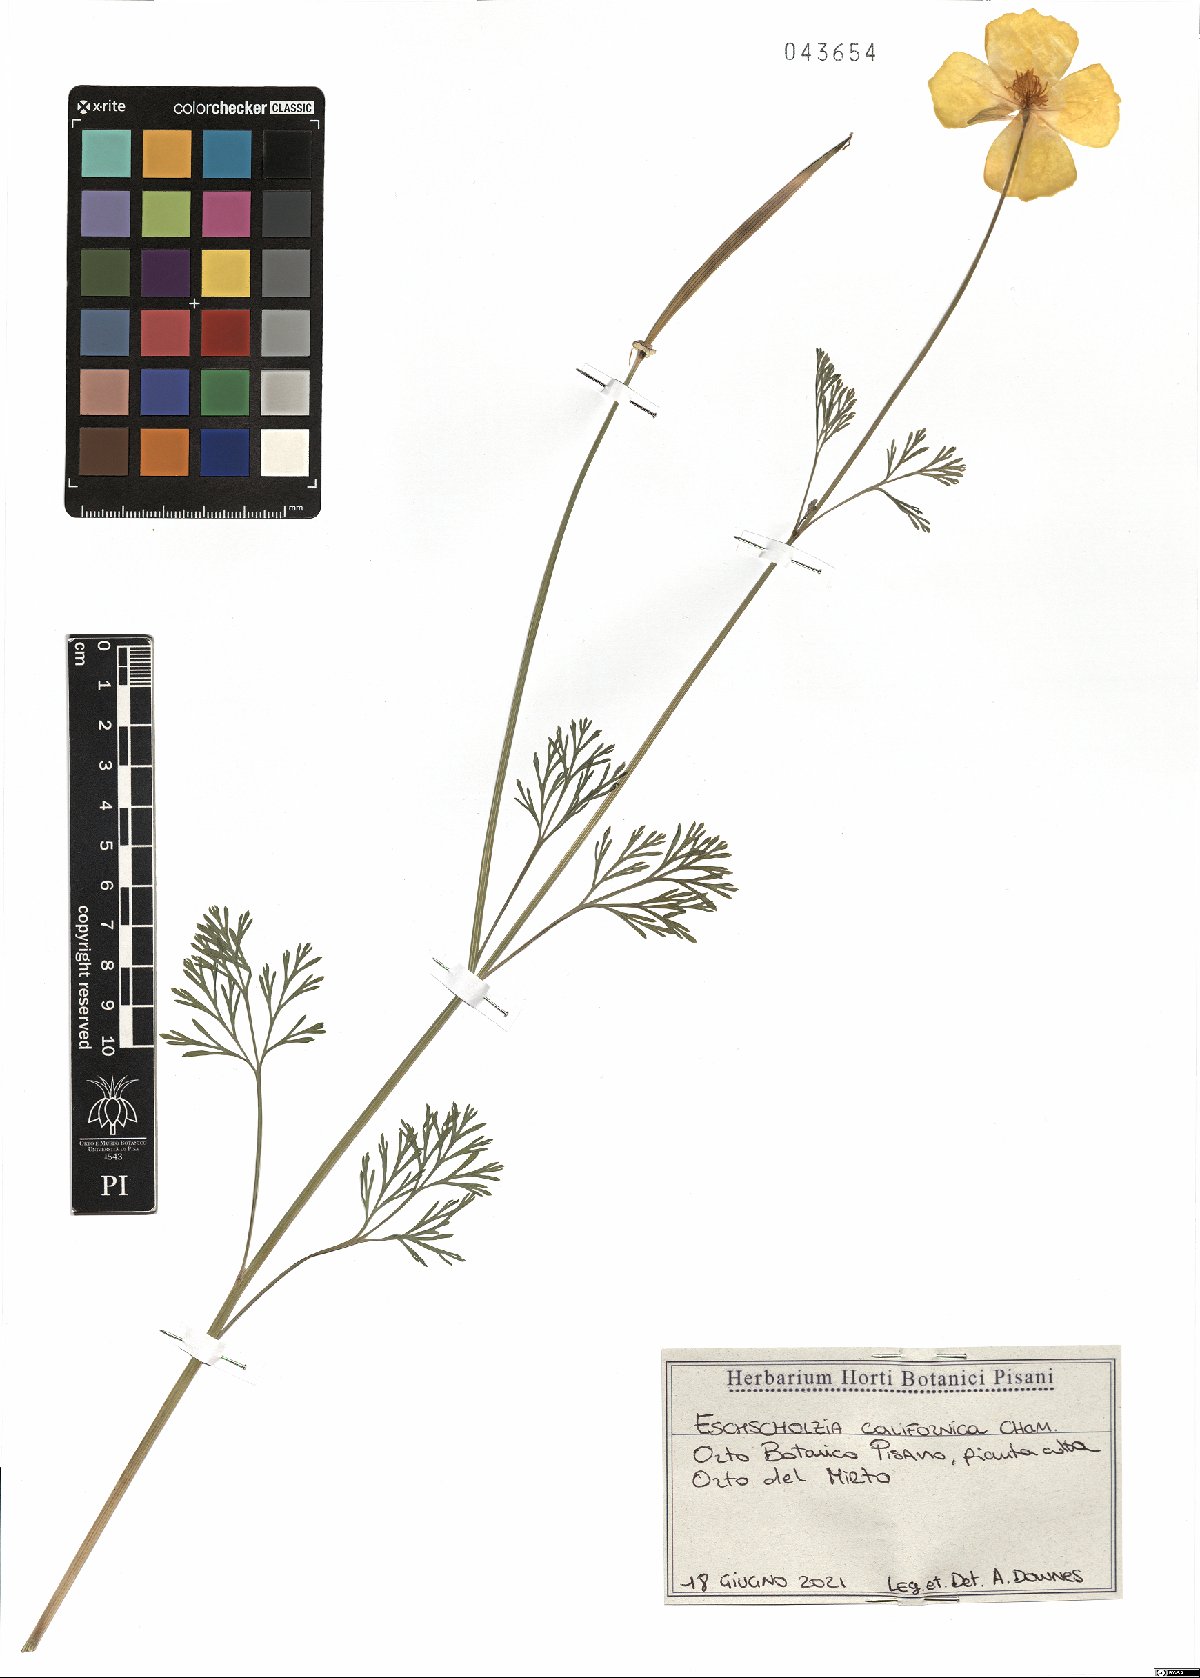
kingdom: Plantae
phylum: Tracheophyta
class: Magnoliopsida
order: Ranunculales
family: Papaveraceae
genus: Eschscholzia
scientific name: Eschscholzia californica
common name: California poppy
